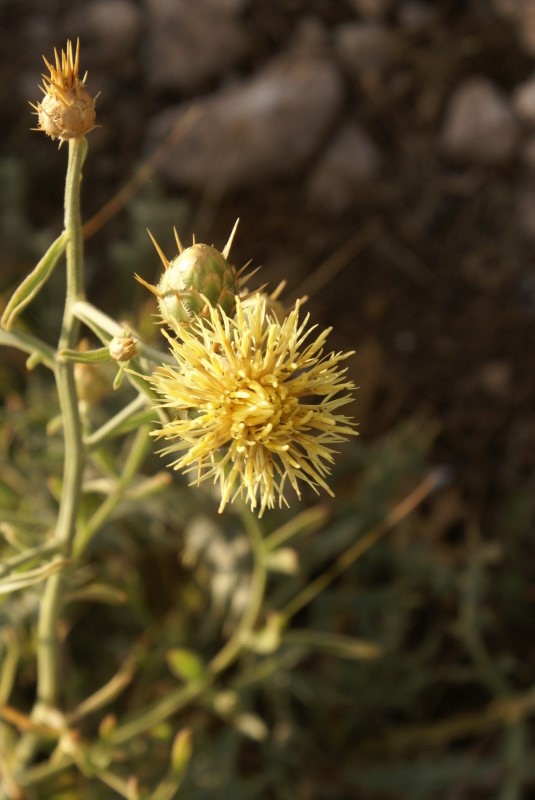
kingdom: Plantae
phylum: Tracheophyta
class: Magnoliopsida
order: Asterales
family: Asteraceae
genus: Centaurea
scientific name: Centaurea solstitialis
